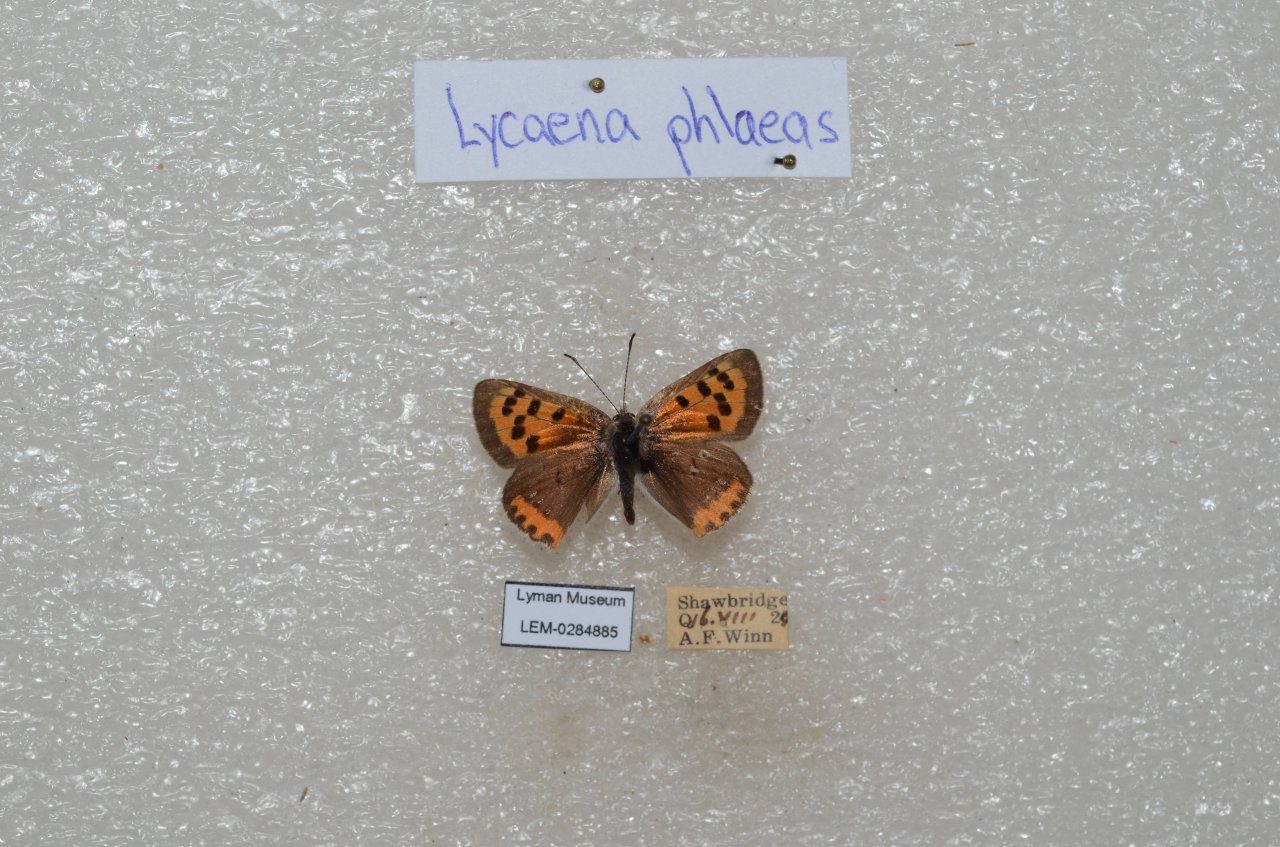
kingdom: Animalia
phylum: Arthropoda
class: Insecta
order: Lepidoptera
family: Lycaenidae
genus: Lycaena
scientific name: Lycaena phlaeas
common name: American Copper
